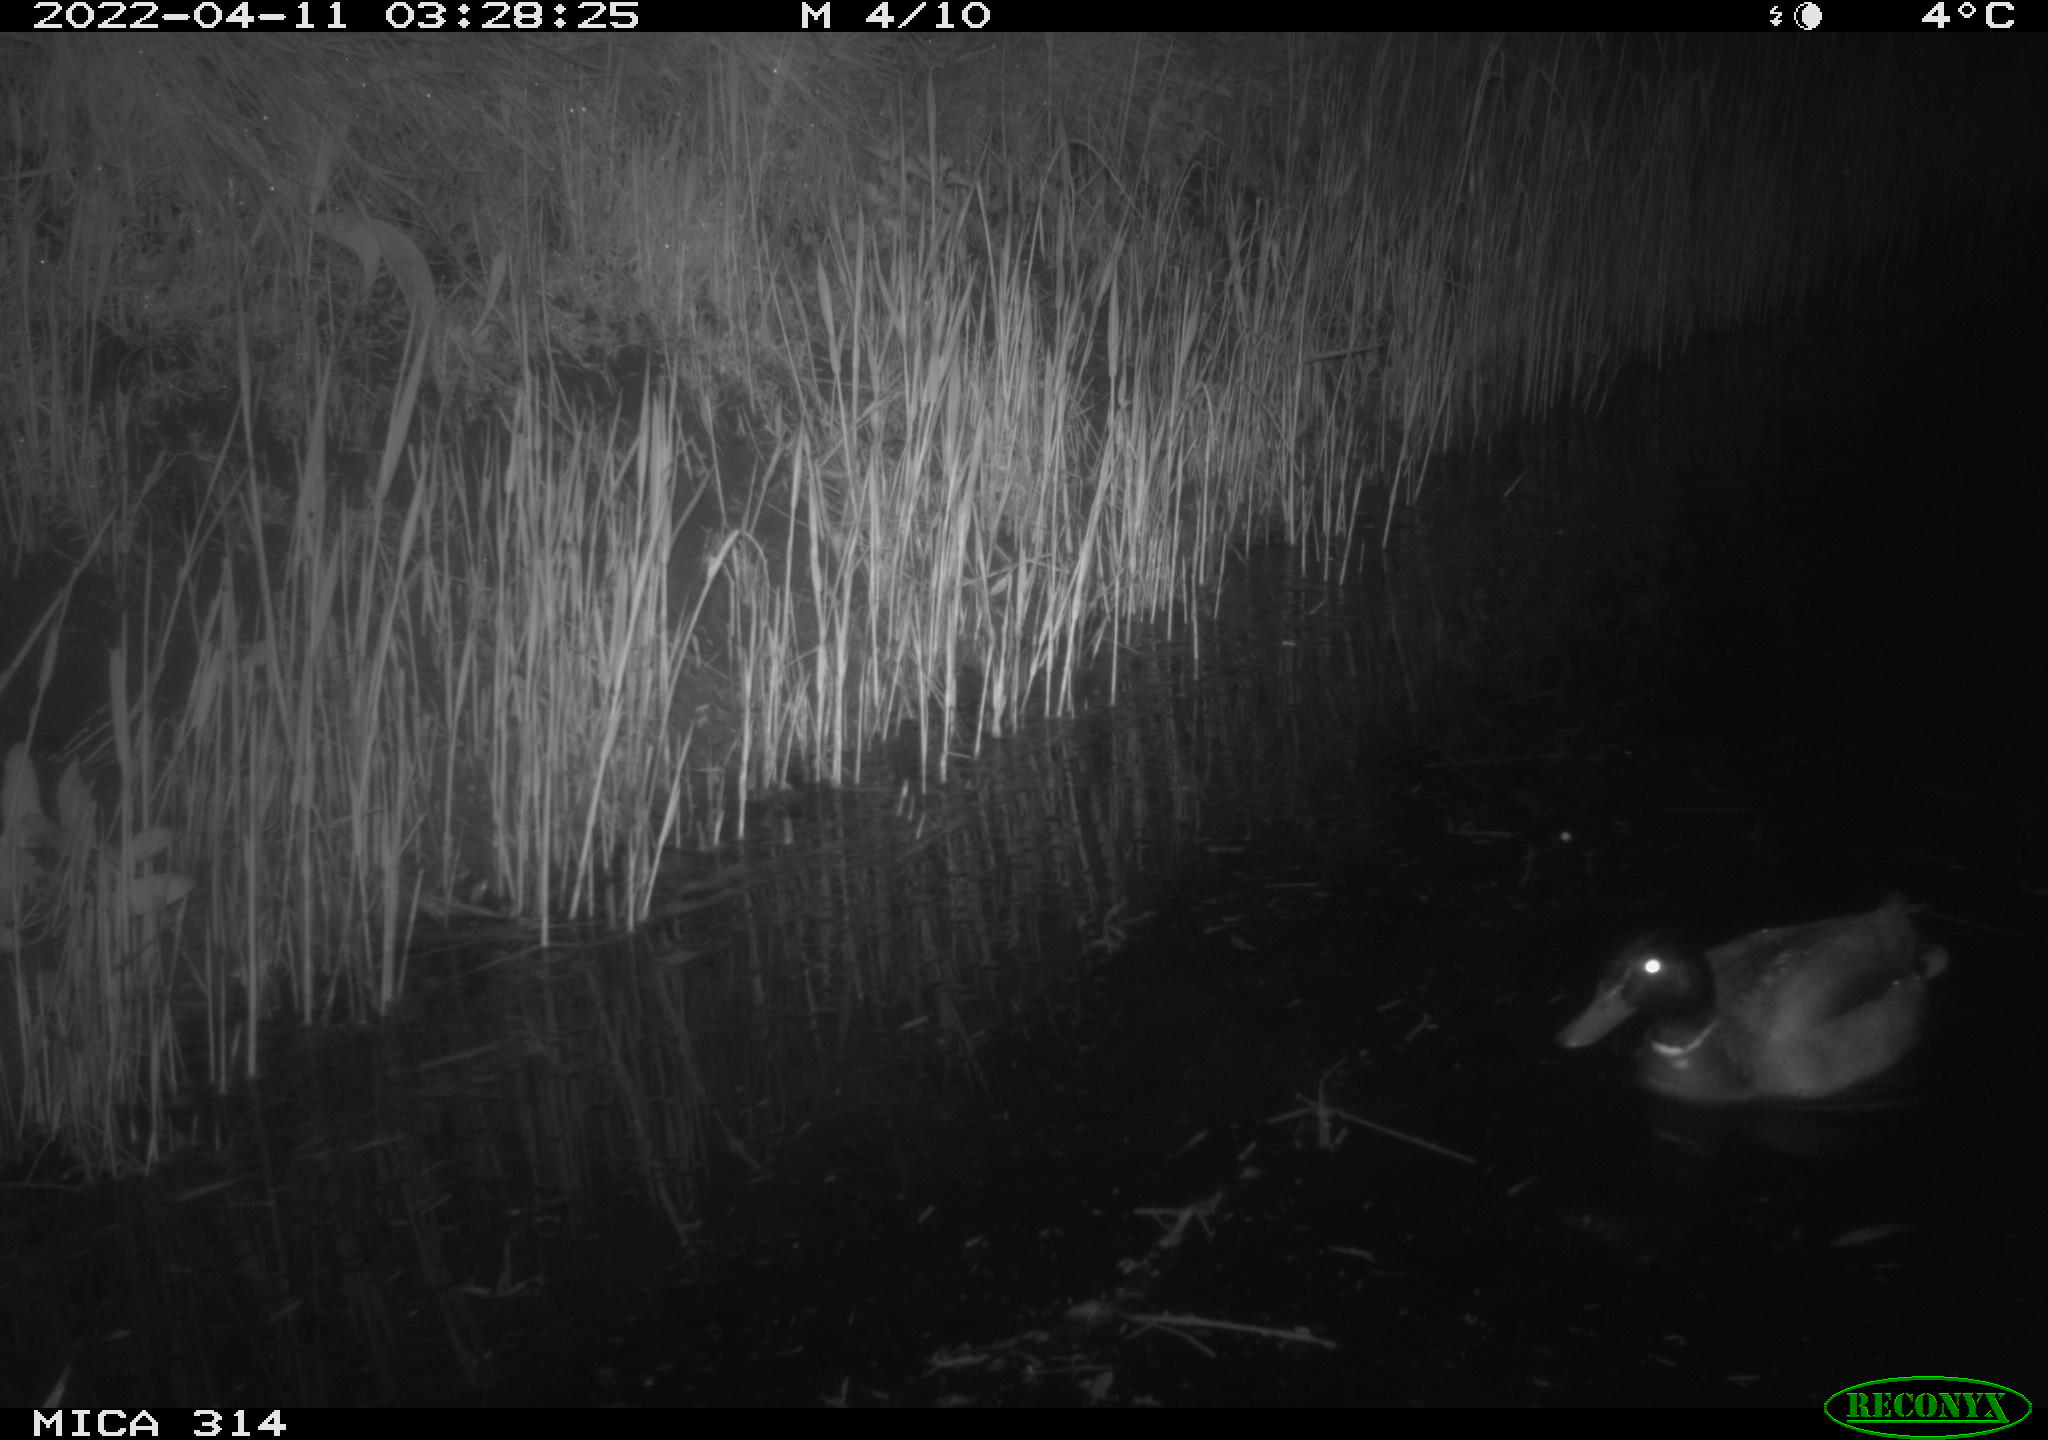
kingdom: Animalia
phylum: Chordata
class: Aves
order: Gruiformes
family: Rallidae
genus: Fulica
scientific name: Fulica atra
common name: Eurasian coot
